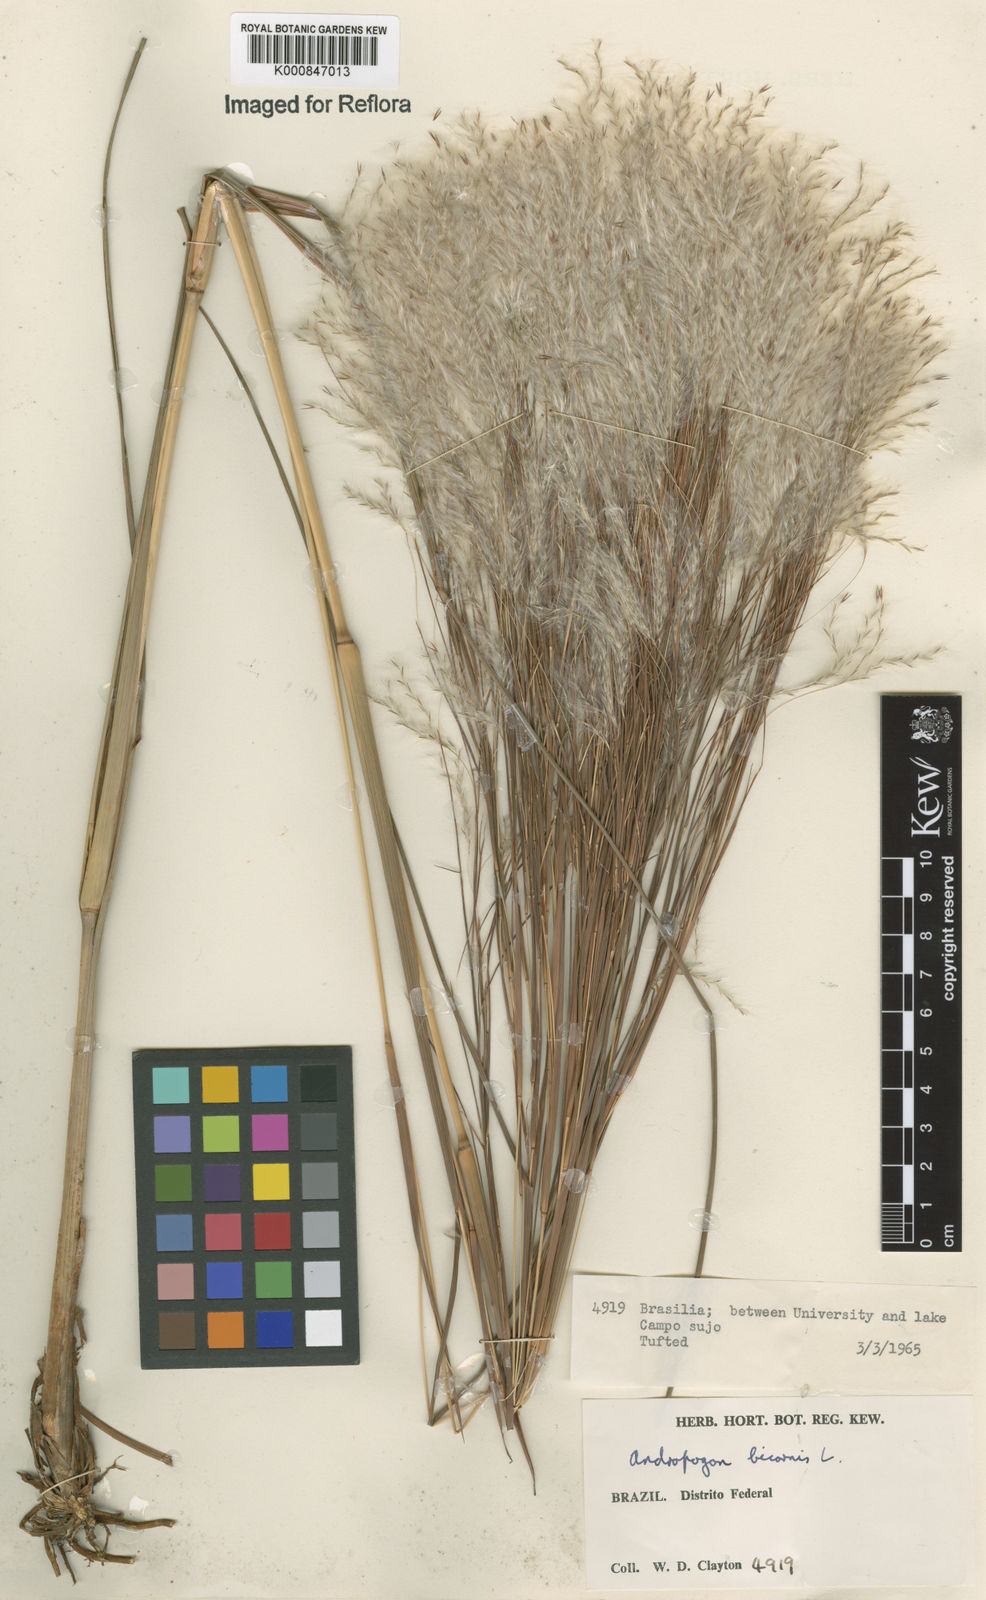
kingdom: Plantae
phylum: Tracheophyta
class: Liliopsida
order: Poales
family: Poaceae
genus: Andropogon
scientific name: Andropogon
